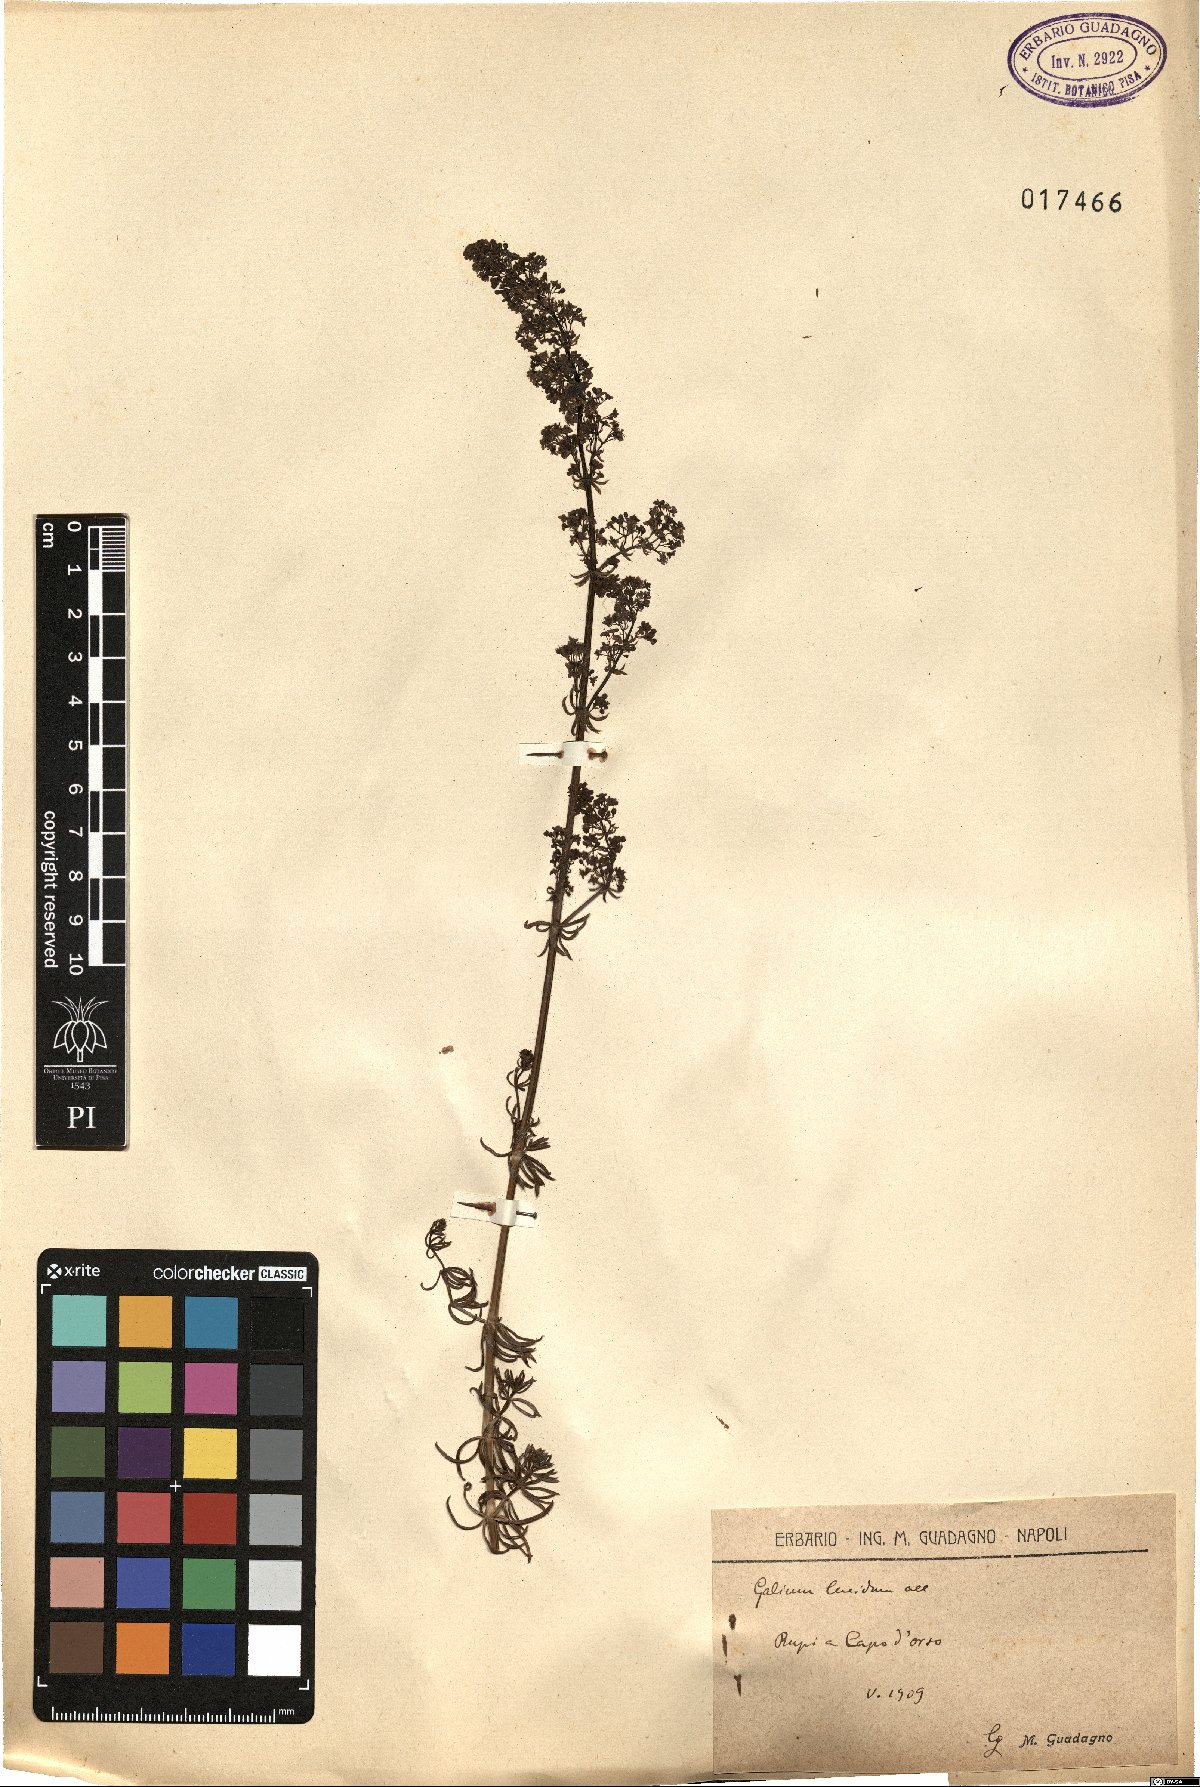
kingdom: Plantae
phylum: Tracheophyta
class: Magnoliopsida
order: Gentianales
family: Rubiaceae
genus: Galium
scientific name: Galium lucidum
